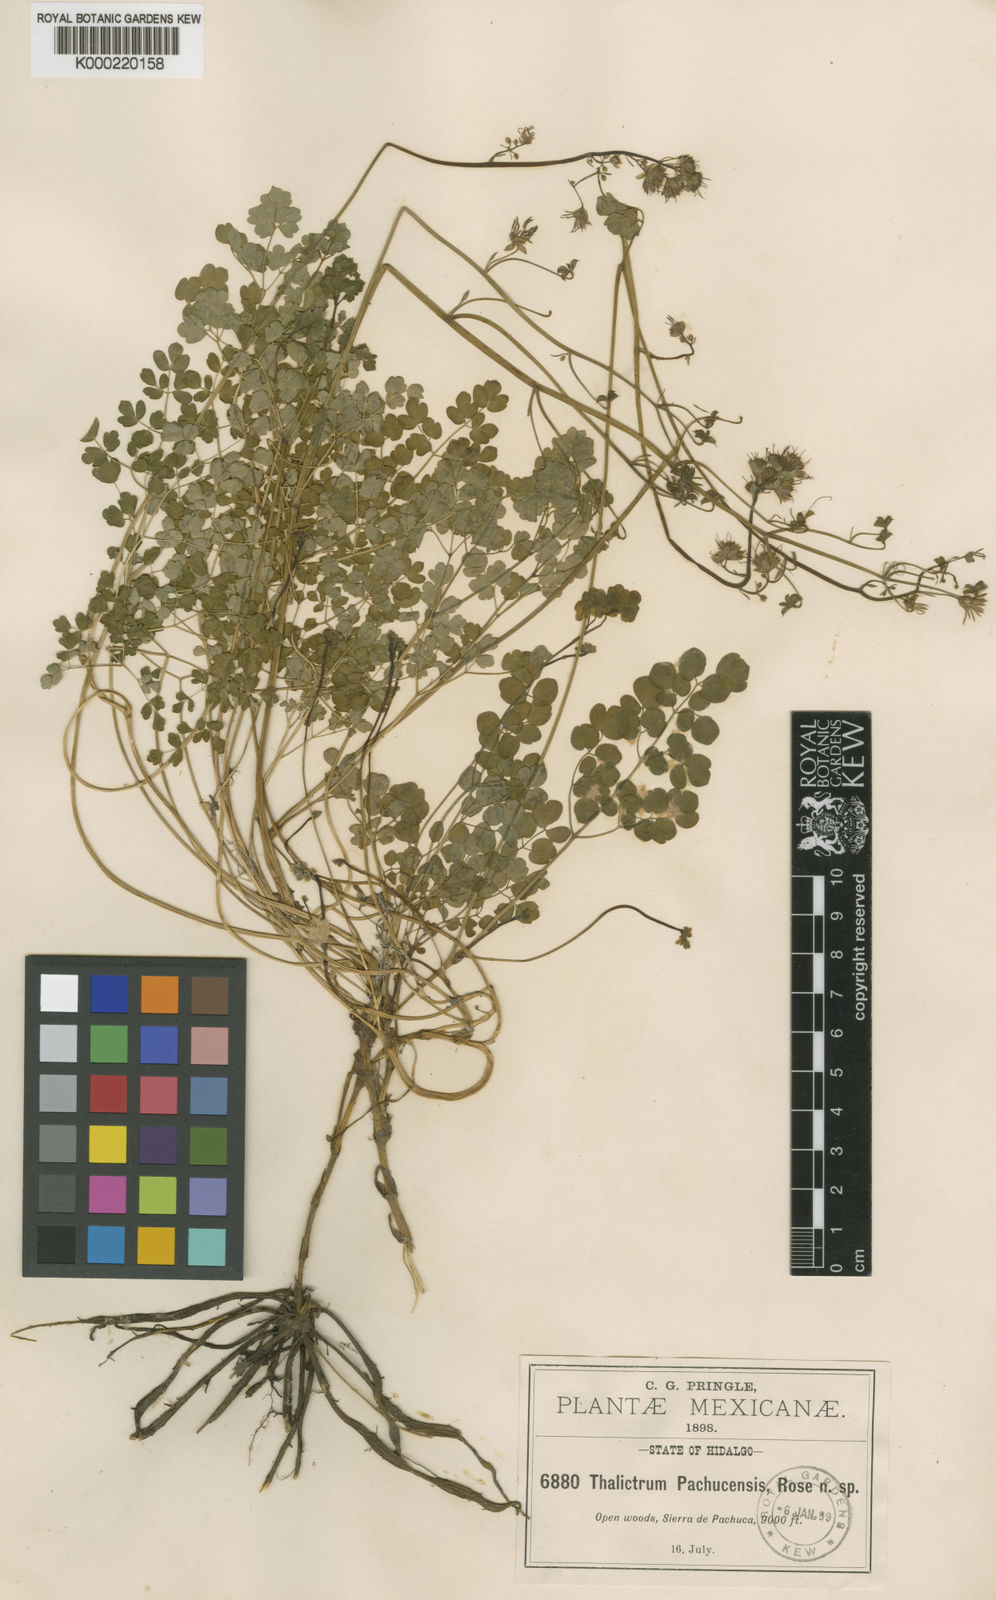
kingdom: Plantae
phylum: Tracheophyta
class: Magnoliopsida
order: Ranunculales
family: Ranunculaceae
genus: Thalictrum
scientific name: Thalictrum pachucense
